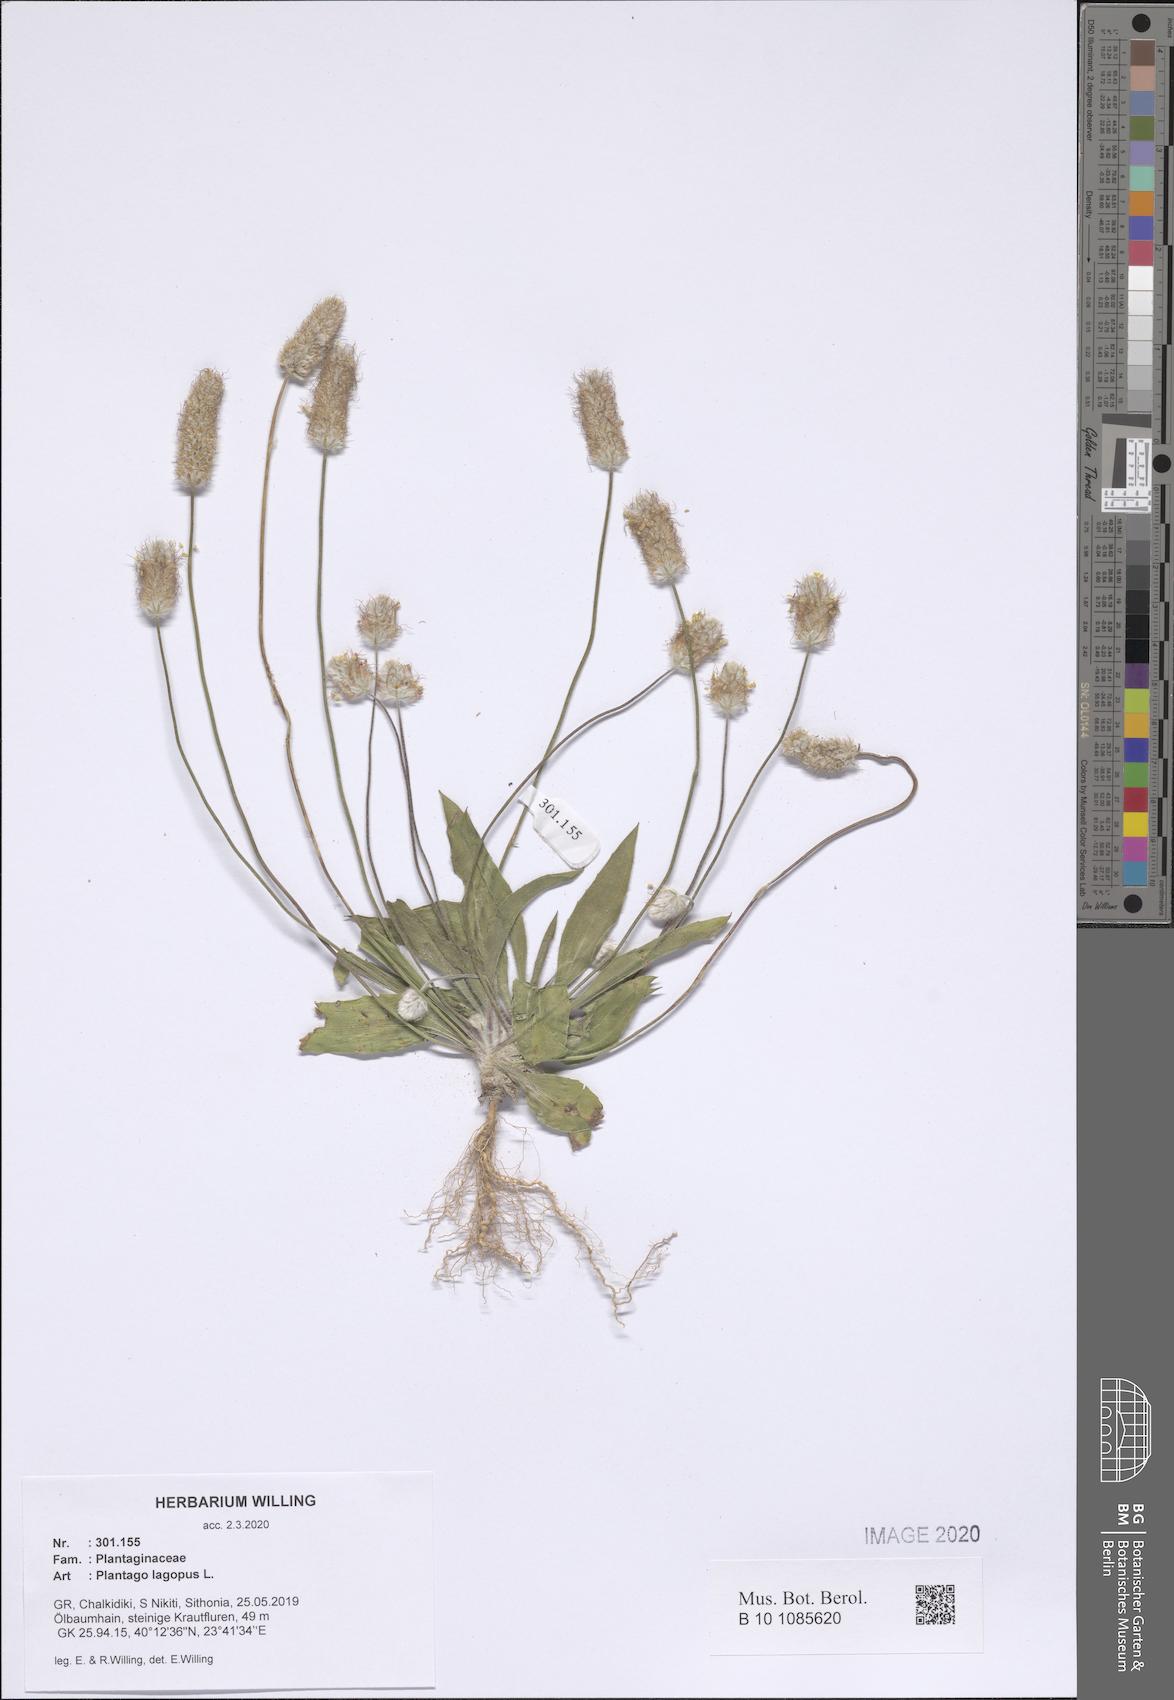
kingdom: Plantae
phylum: Tracheophyta
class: Magnoliopsida
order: Lamiales
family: Plantaginaceae
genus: Plantago
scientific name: Plantago lagopus
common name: Hare-foot plantain
